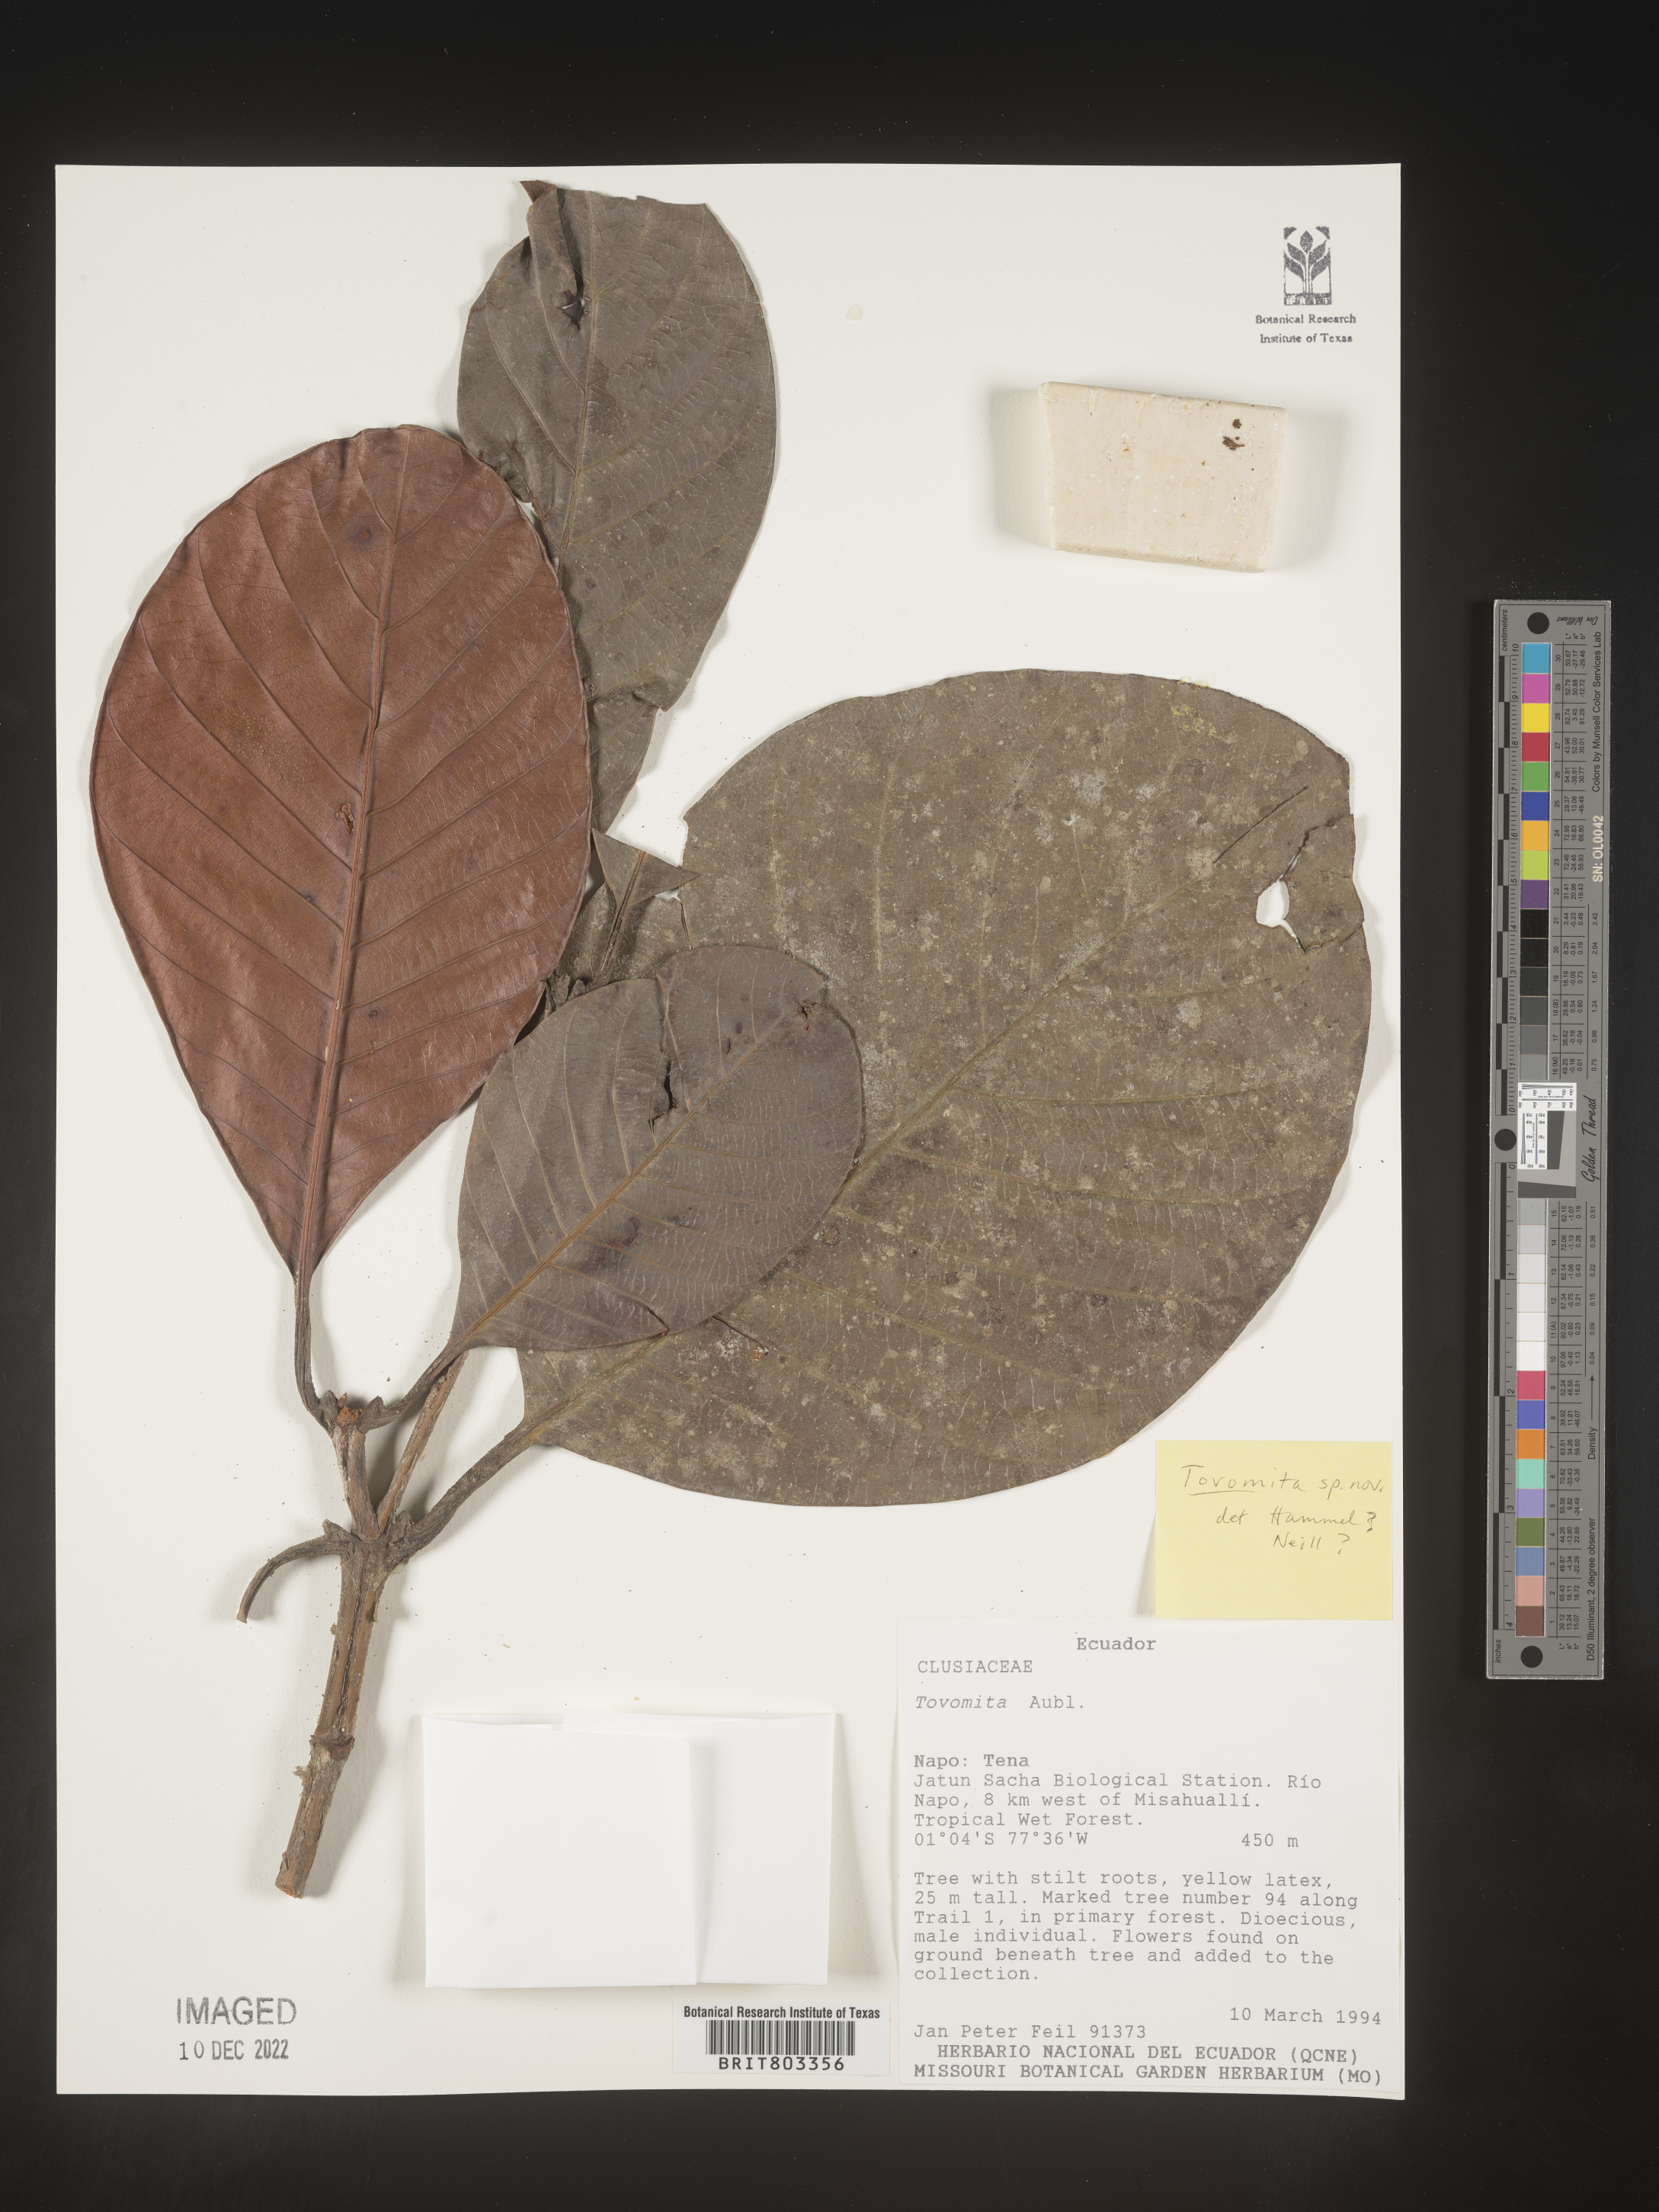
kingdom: Plantae
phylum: Tracheophyta
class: Magnoliopsida
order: Malpighiales
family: Clusiaceae
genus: Tovomita
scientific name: Tovomita
